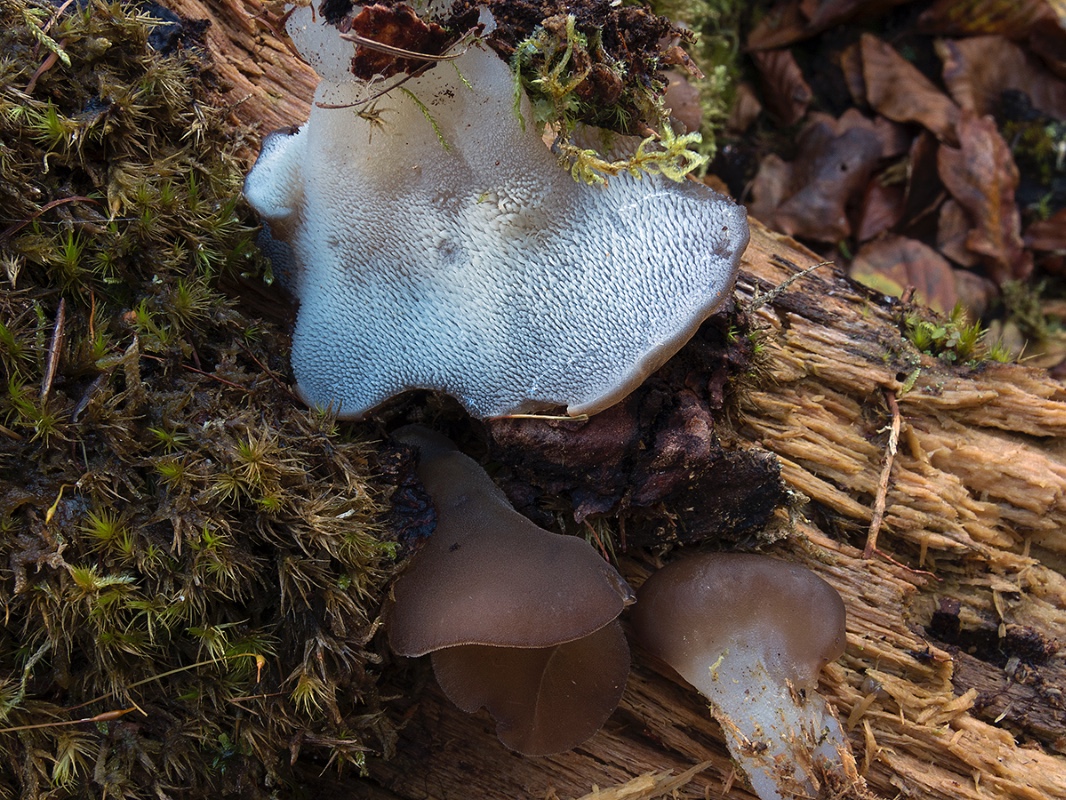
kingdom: Fungi
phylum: Basidiomycota
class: Agaricomycetes
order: Auriculariales
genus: Pseudohydnum
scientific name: Pseudohydnum gelatinosum
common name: bævretand
